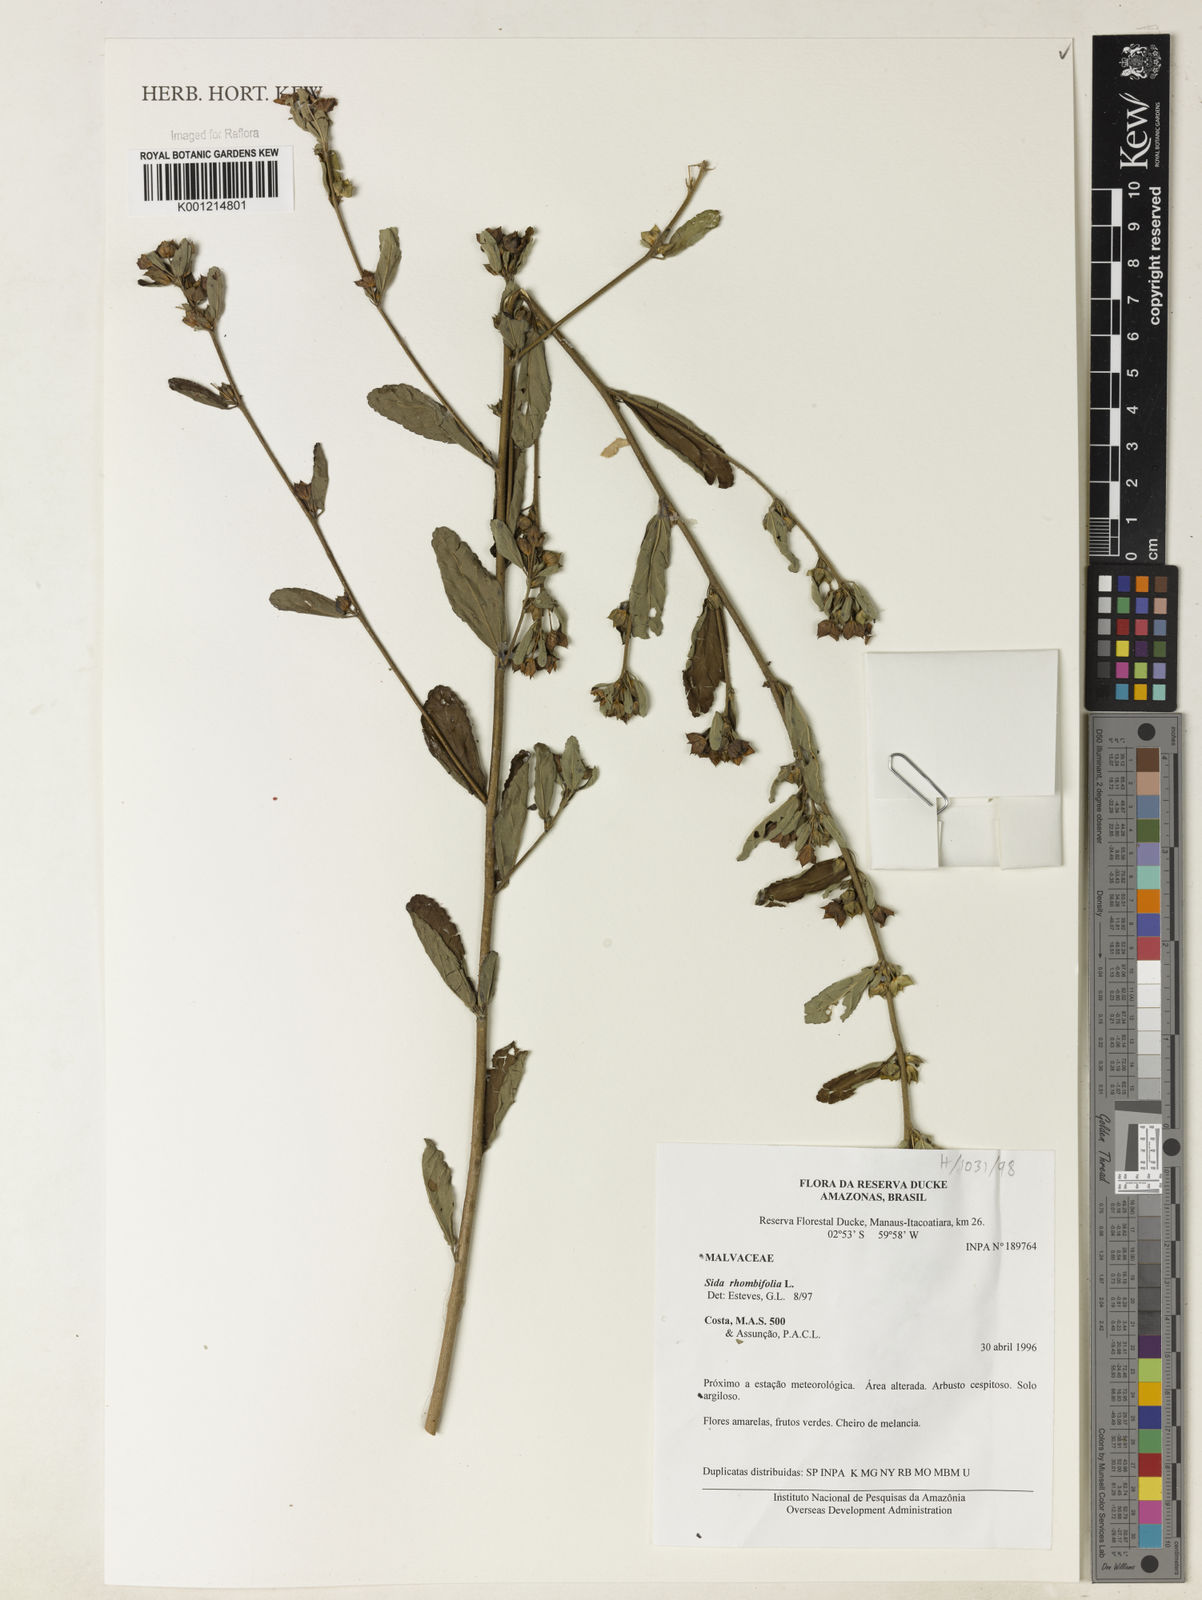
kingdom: Plantae
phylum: Tracheophyta
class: Magnoliopsida
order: Malvales
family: Malvaceae
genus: Sida
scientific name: Sida rhombifolia
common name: Queensland-hemp
